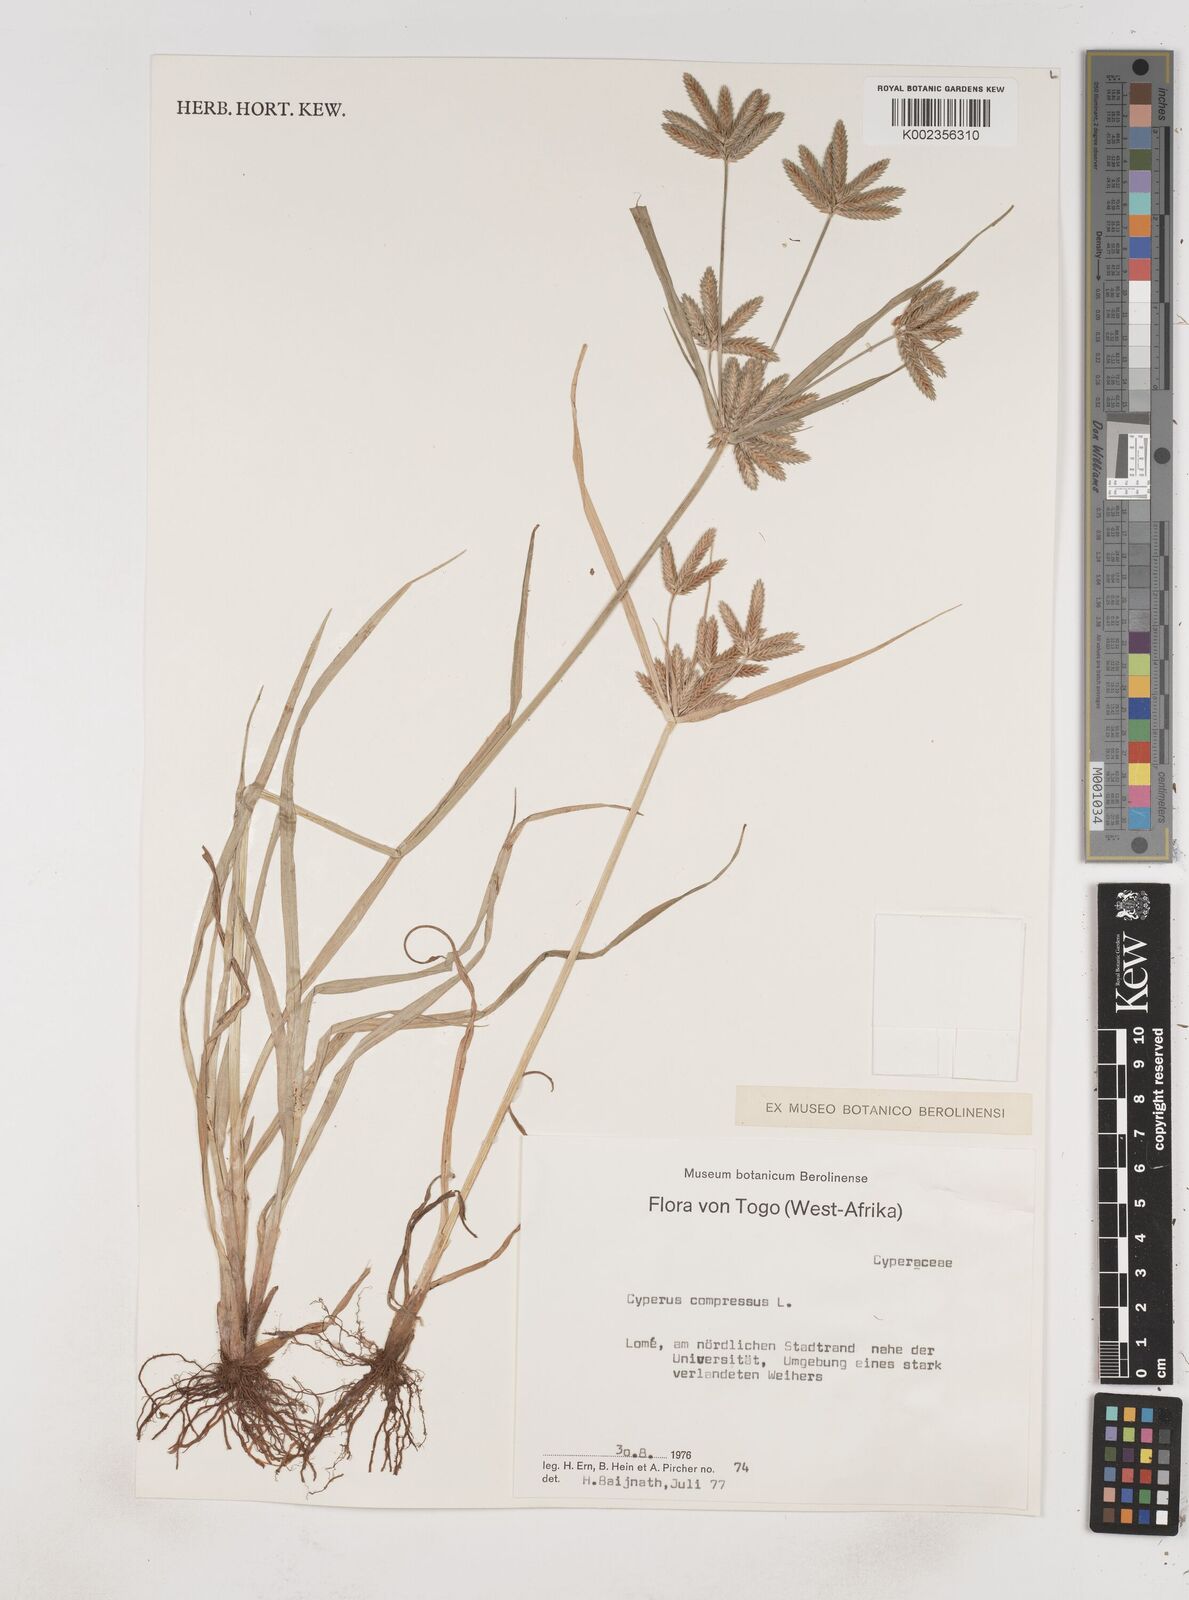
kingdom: Plantae
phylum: Tracheophyta
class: Liliopsida
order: Poales
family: Cyperaceae
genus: Cyperus
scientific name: Cyperus compressus
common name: Poorland flatsedge
